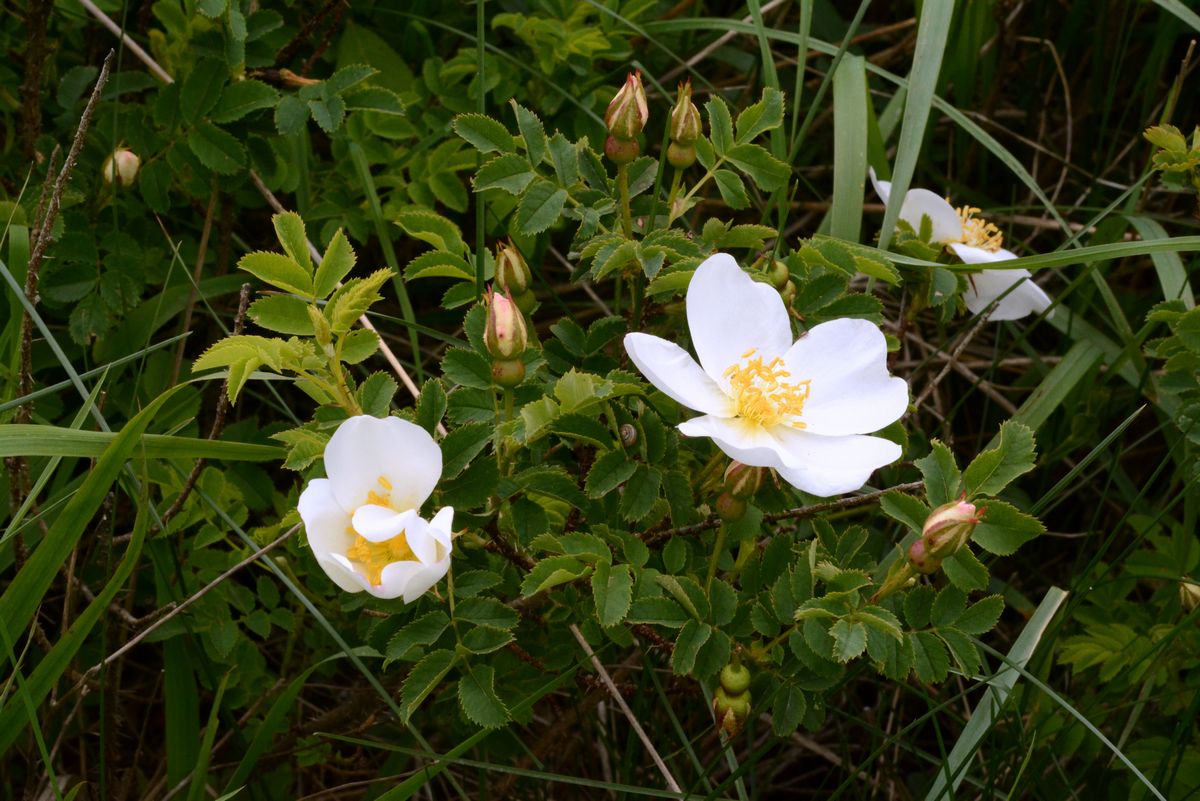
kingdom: Plantae
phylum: Tracheophyta
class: Magnoliopsida
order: Rosales
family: Rosaceae
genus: Rosa
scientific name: Rosa
